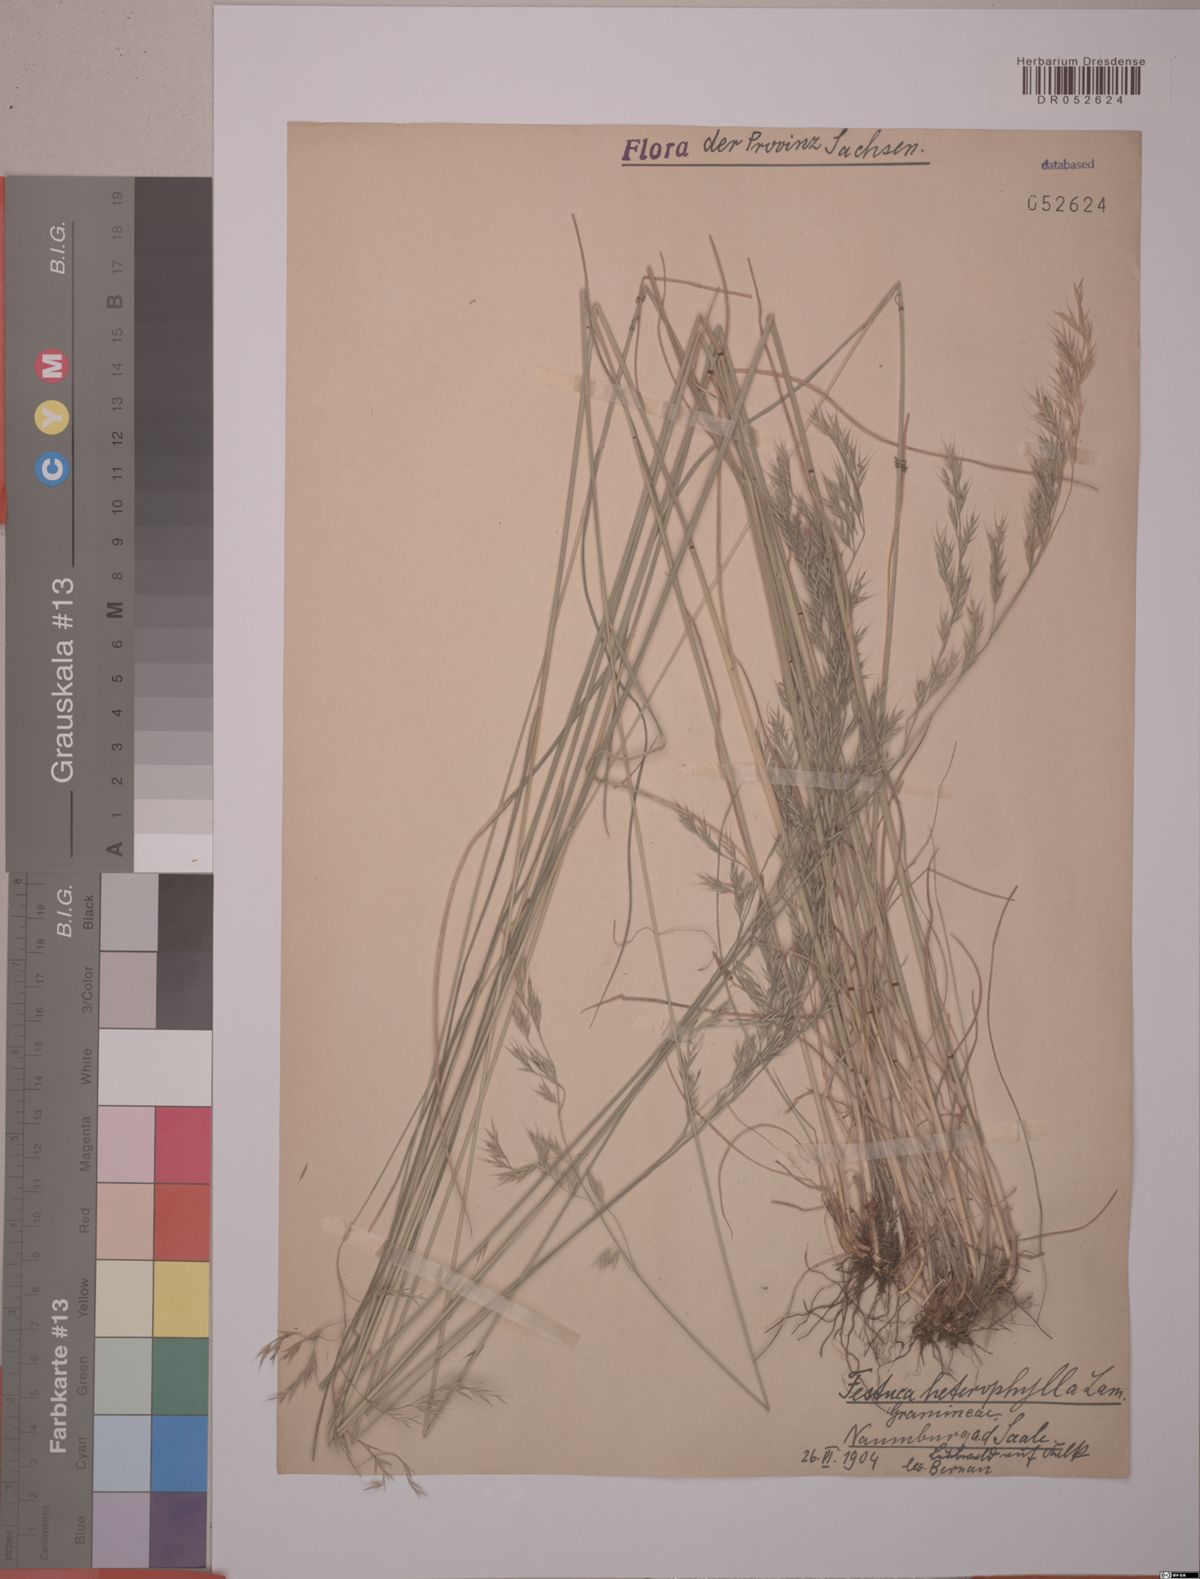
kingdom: Plantae
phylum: Tracheophyta
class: Liliopsida
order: Poales
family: Poaceae
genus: Festuca
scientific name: Festuca heterophylla
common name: Various-leaved fescue
